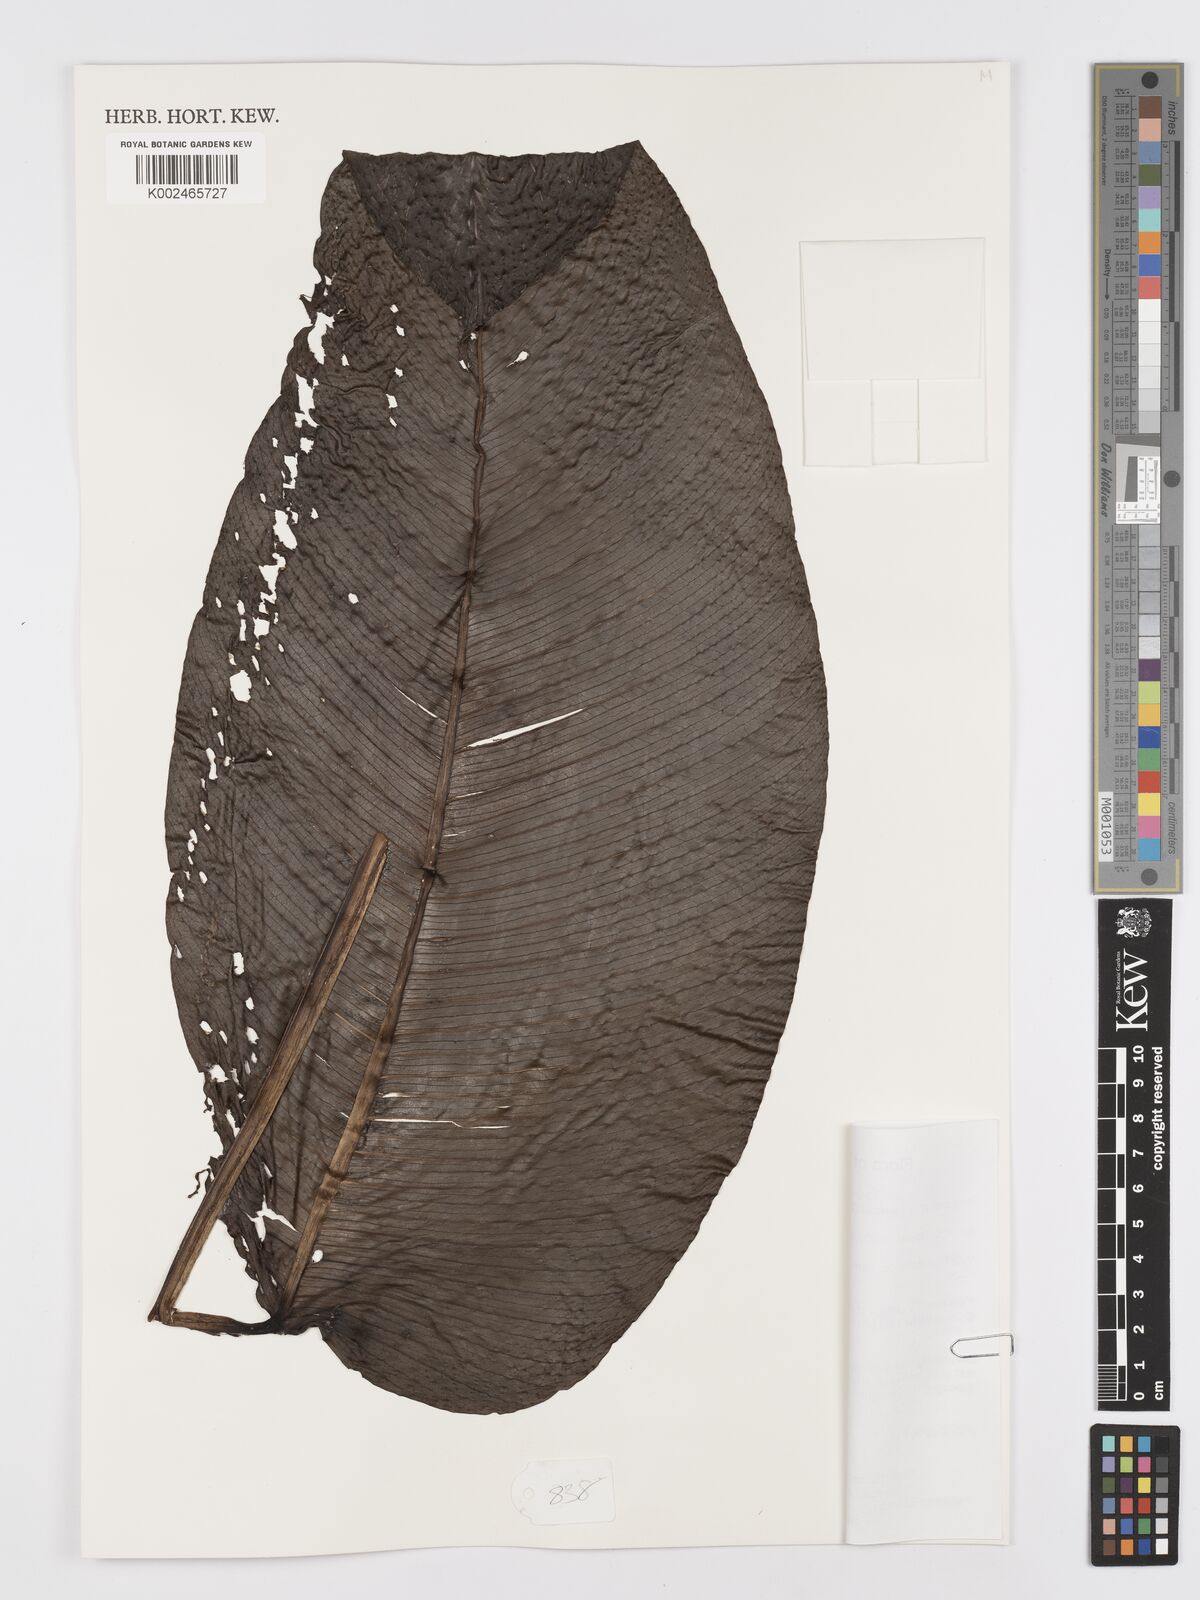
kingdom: Plantae
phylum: Tracheophyta
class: Liliopsida
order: Alismatales
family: Araceae
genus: Rhaphidophora
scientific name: Rhaphidophora hookeri
